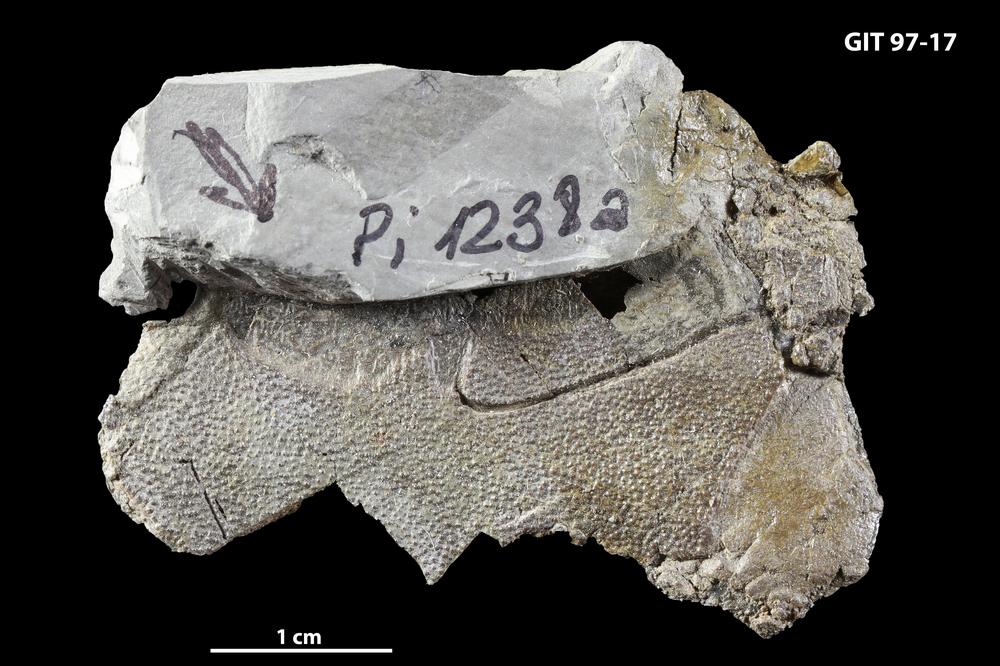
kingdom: Animalia
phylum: Chordata
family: Holonematidae
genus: Holonema
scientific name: Holonema
